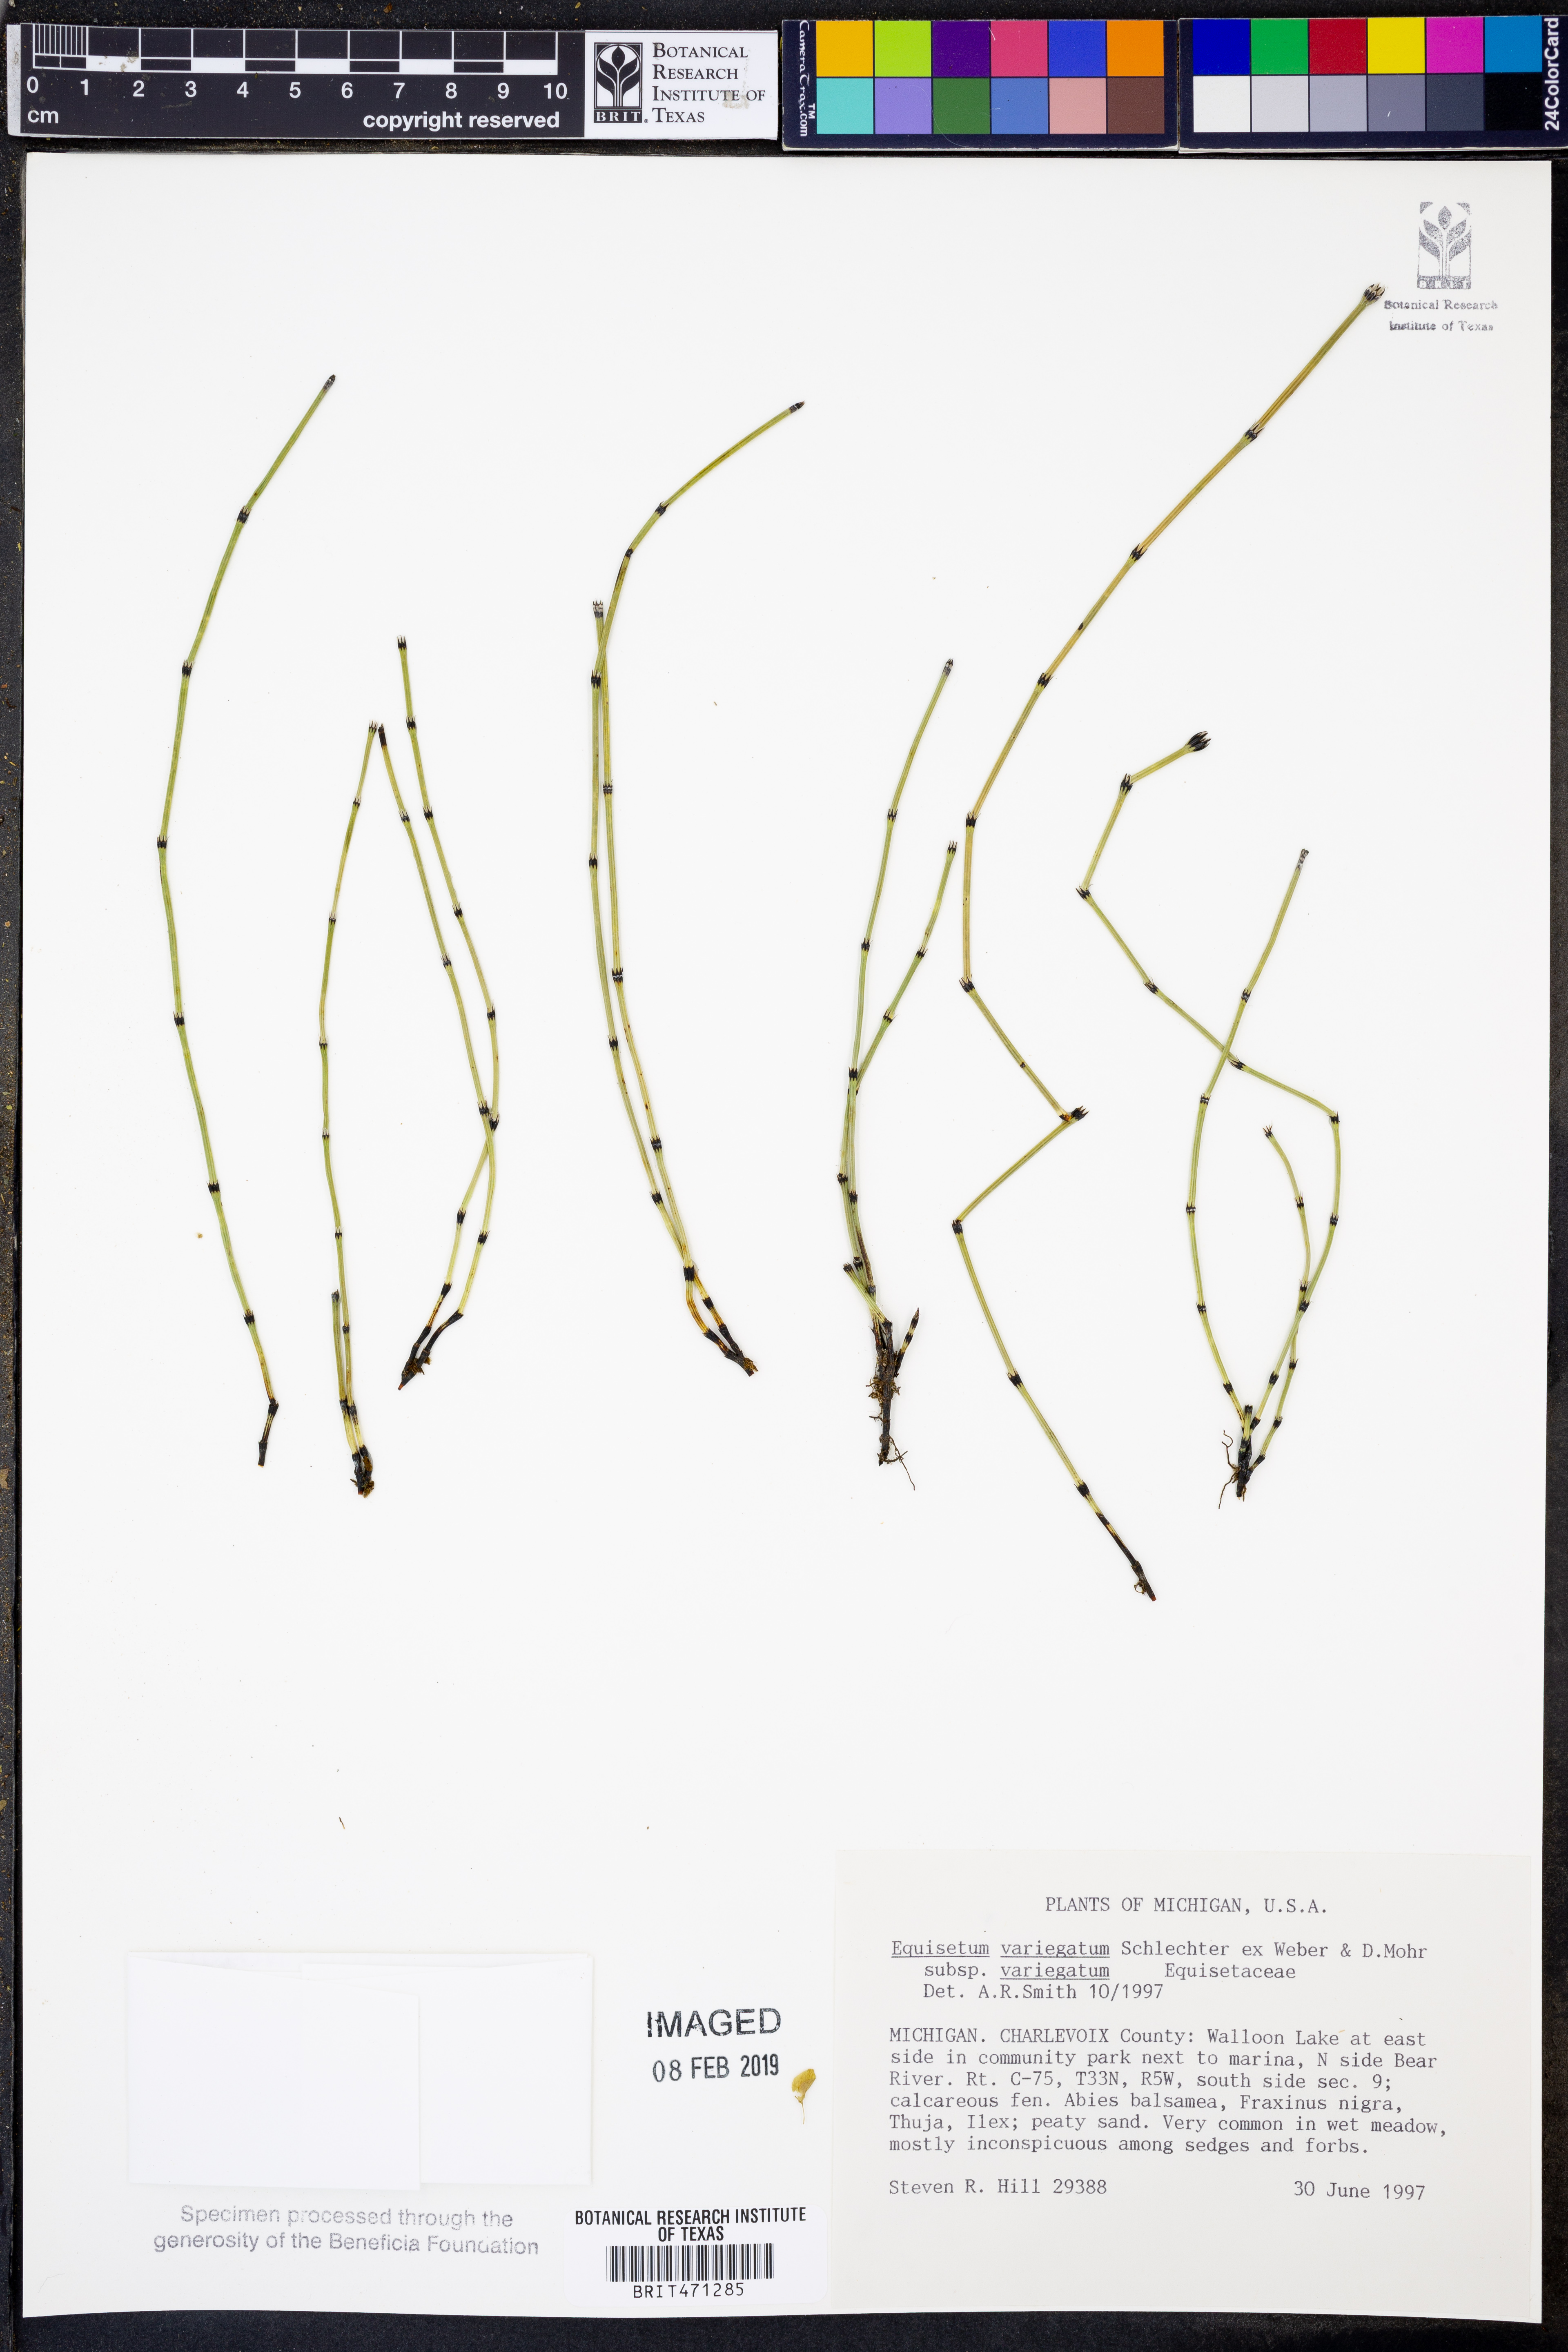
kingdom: Plantae
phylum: Tracheophyta
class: Polypodiopsida
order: Equisetales
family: Equisetaceae
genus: Equisetum
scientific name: Equisetum variegatum
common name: Variegated horsetail
